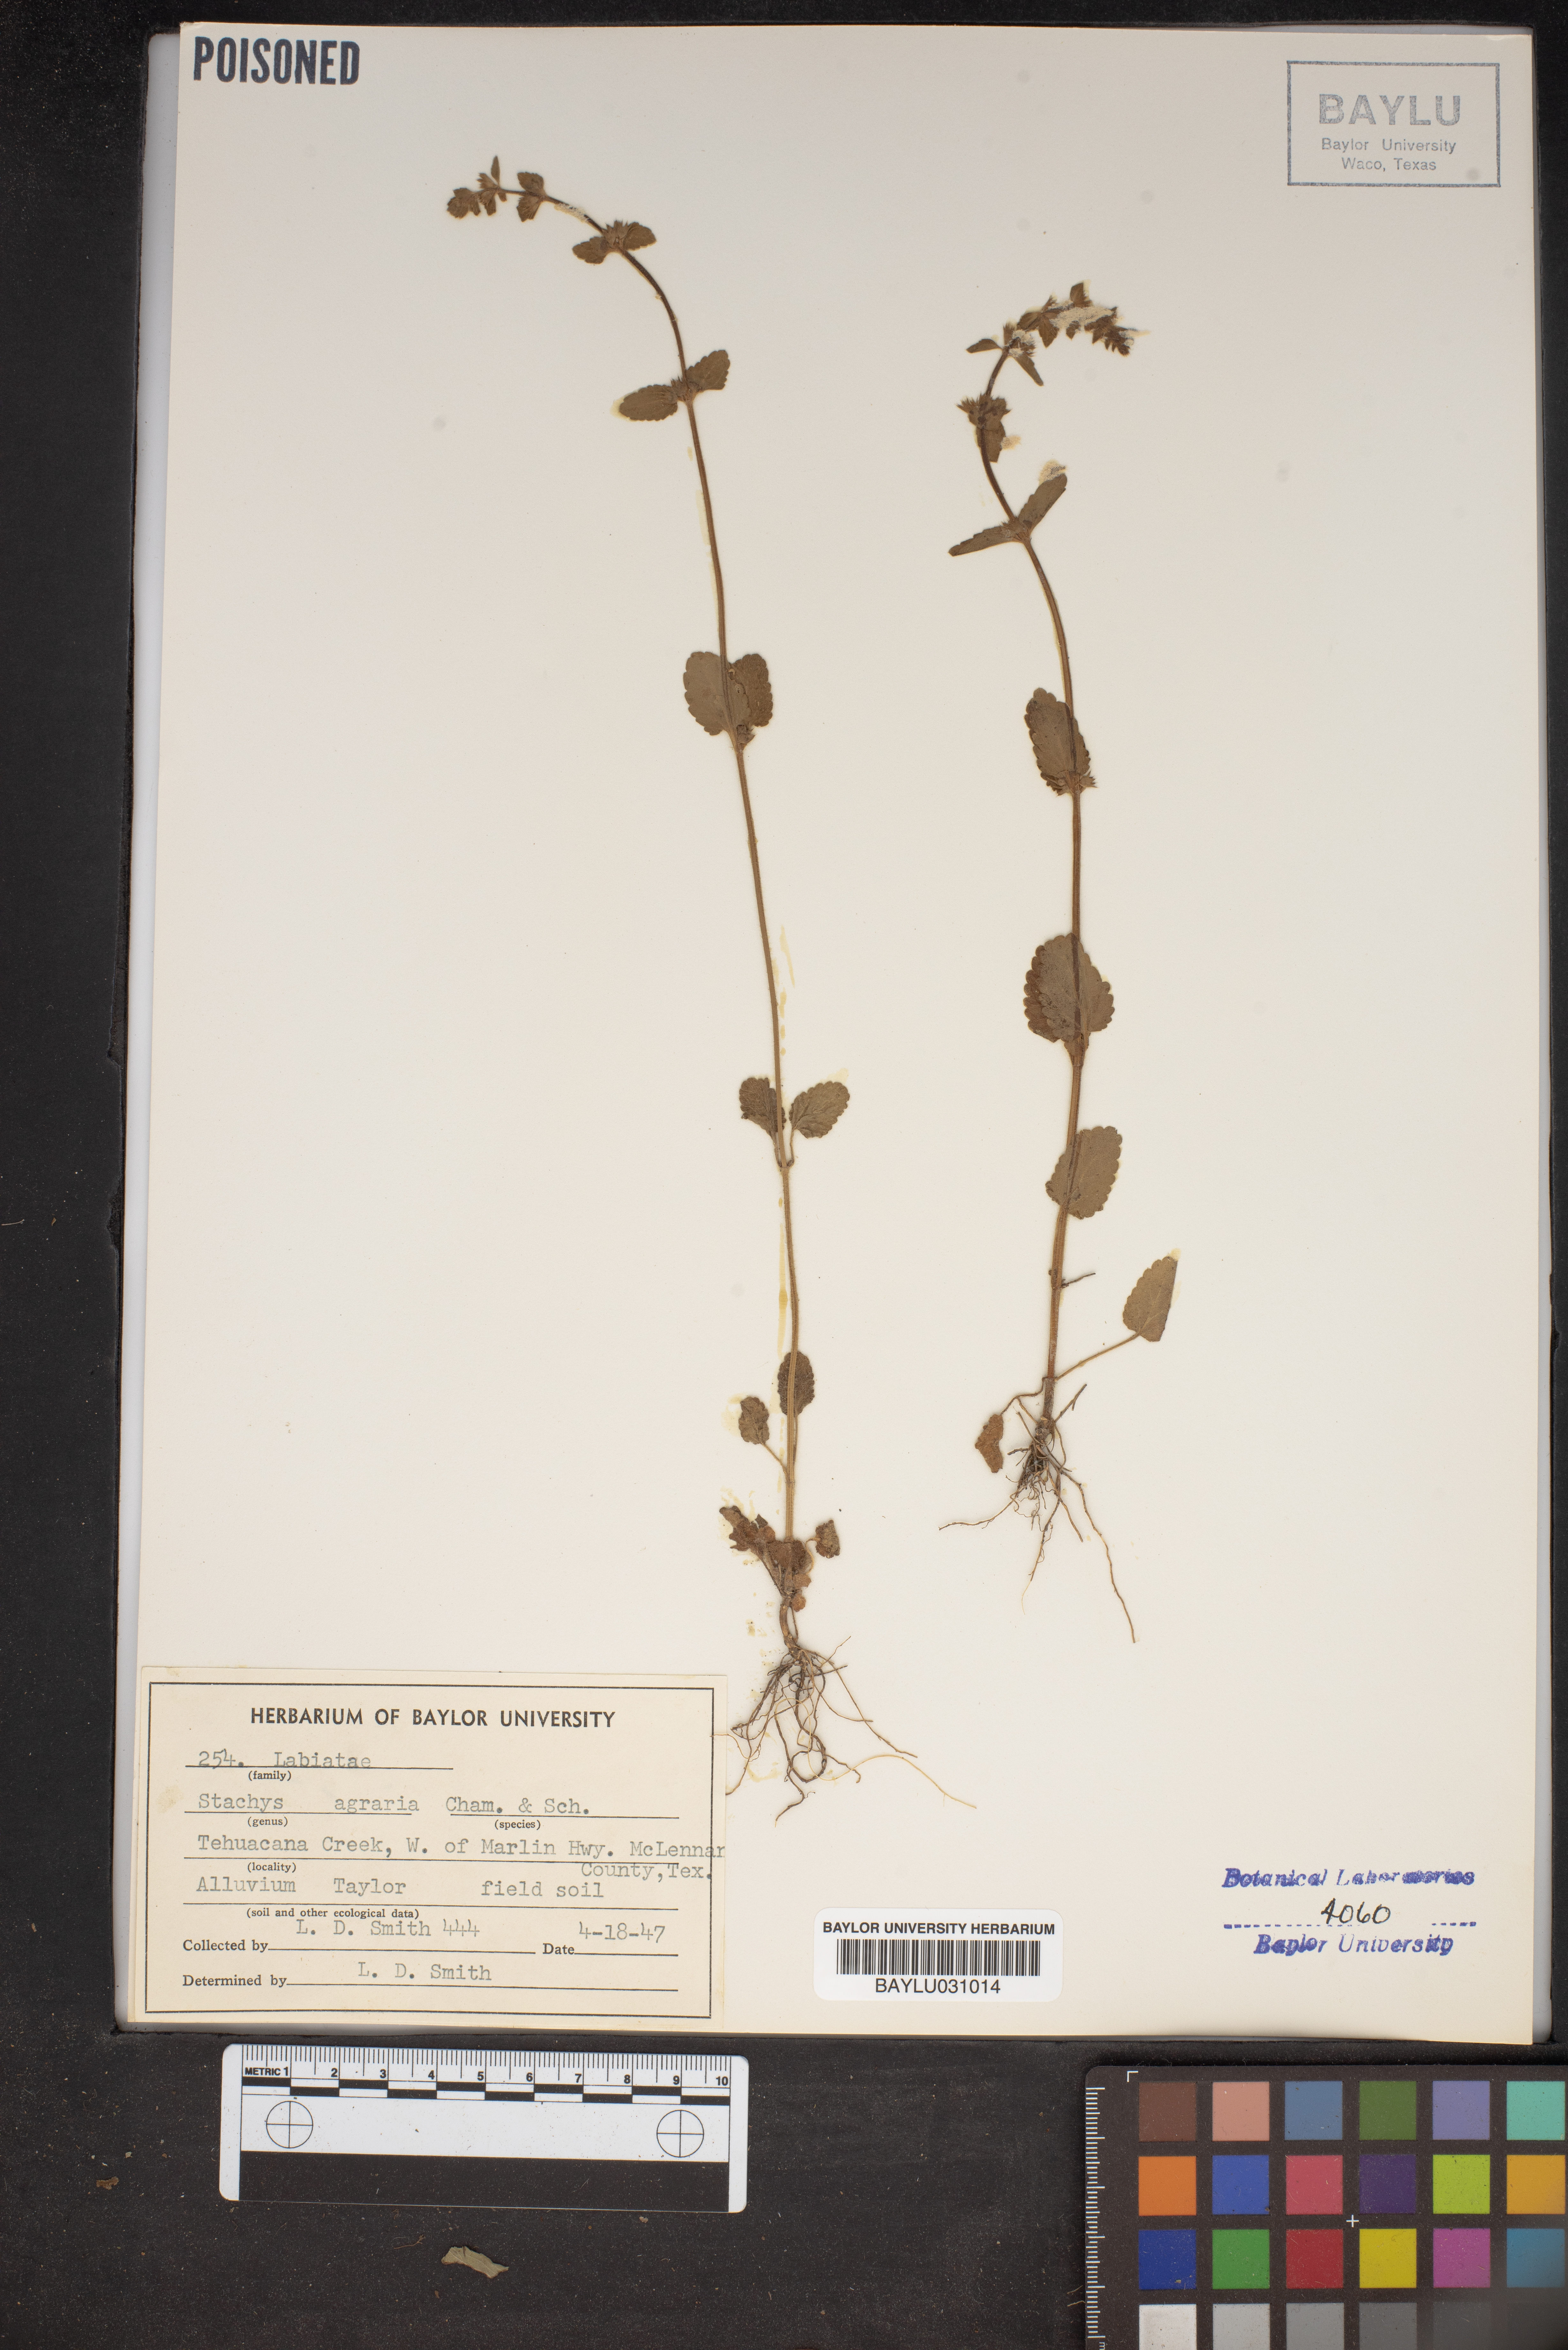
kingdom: Plantae
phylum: Tracheophyta
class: Magnoliopsida
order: Lamiales
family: Lamiaceae
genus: Stachys
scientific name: Stachys agraria
